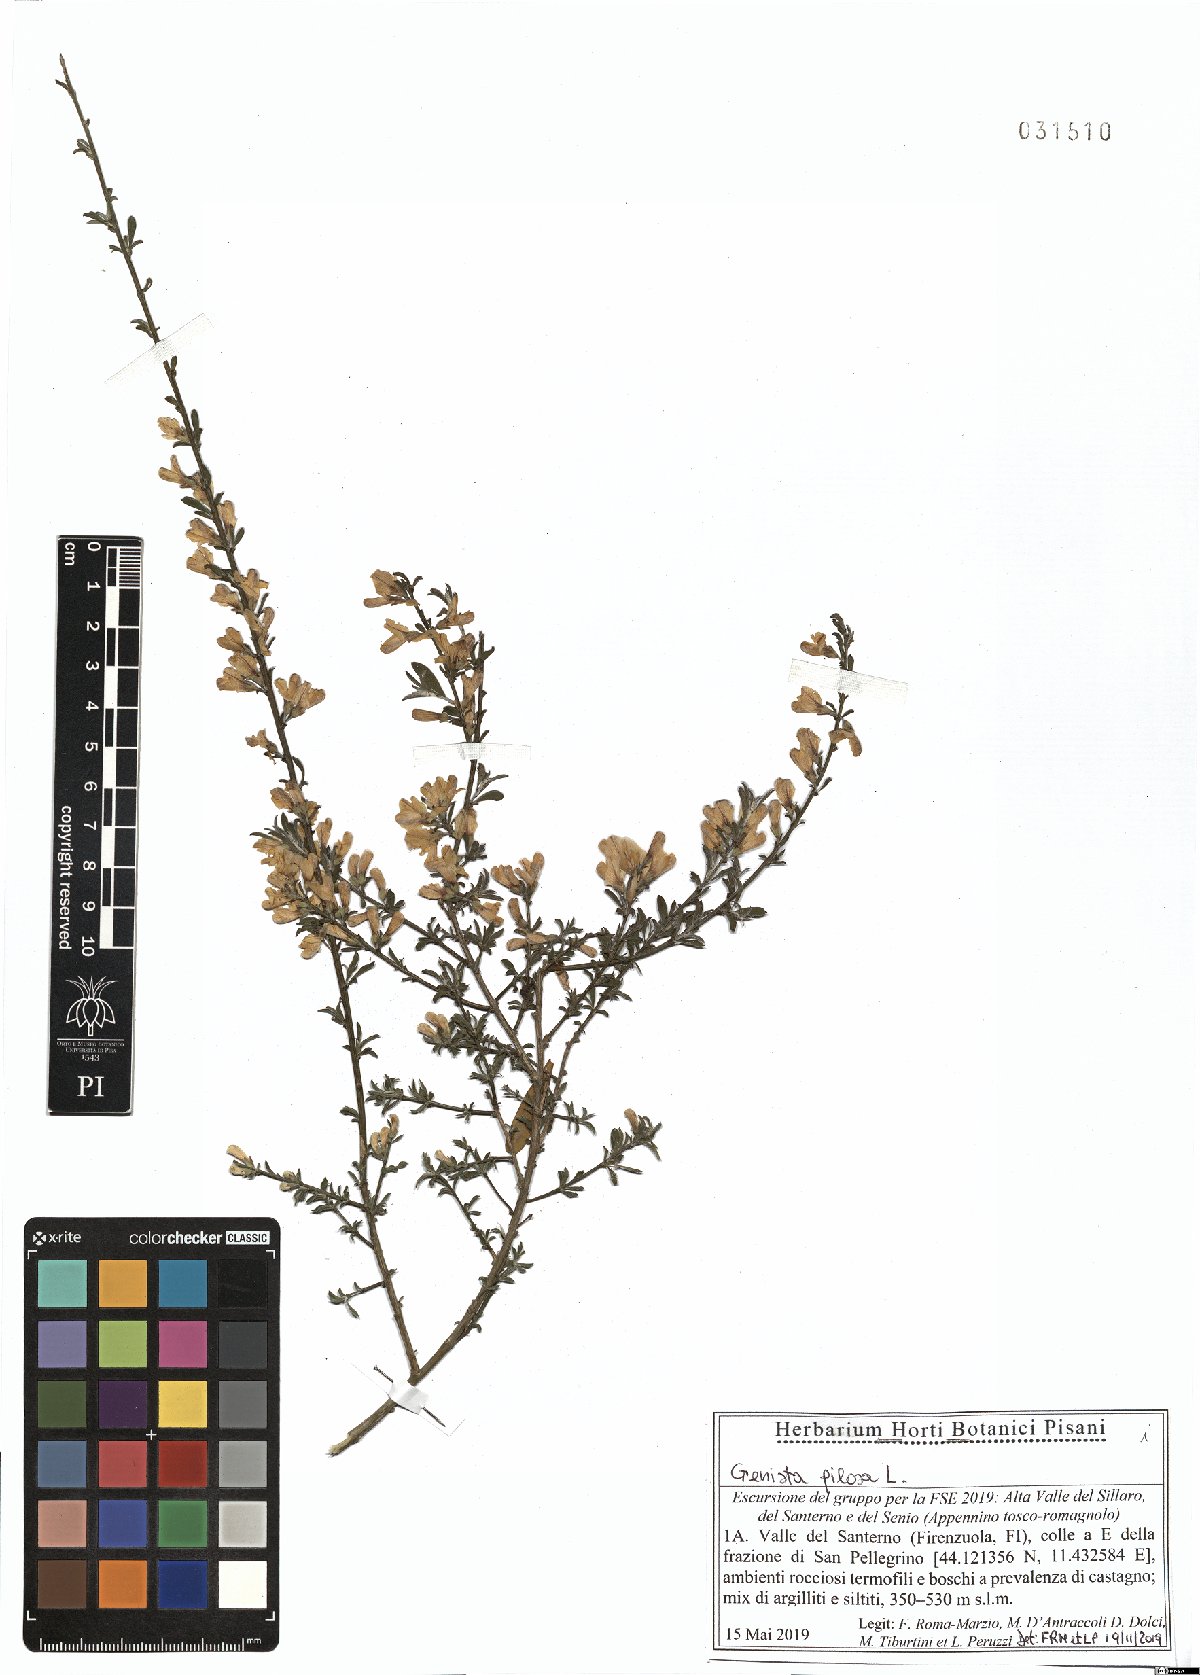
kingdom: Plantae
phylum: Tracheophyta
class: Magnoliopsida
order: Fabales
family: Fabaceae
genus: Genista
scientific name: Genista pilosa
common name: Hairy greenweed
